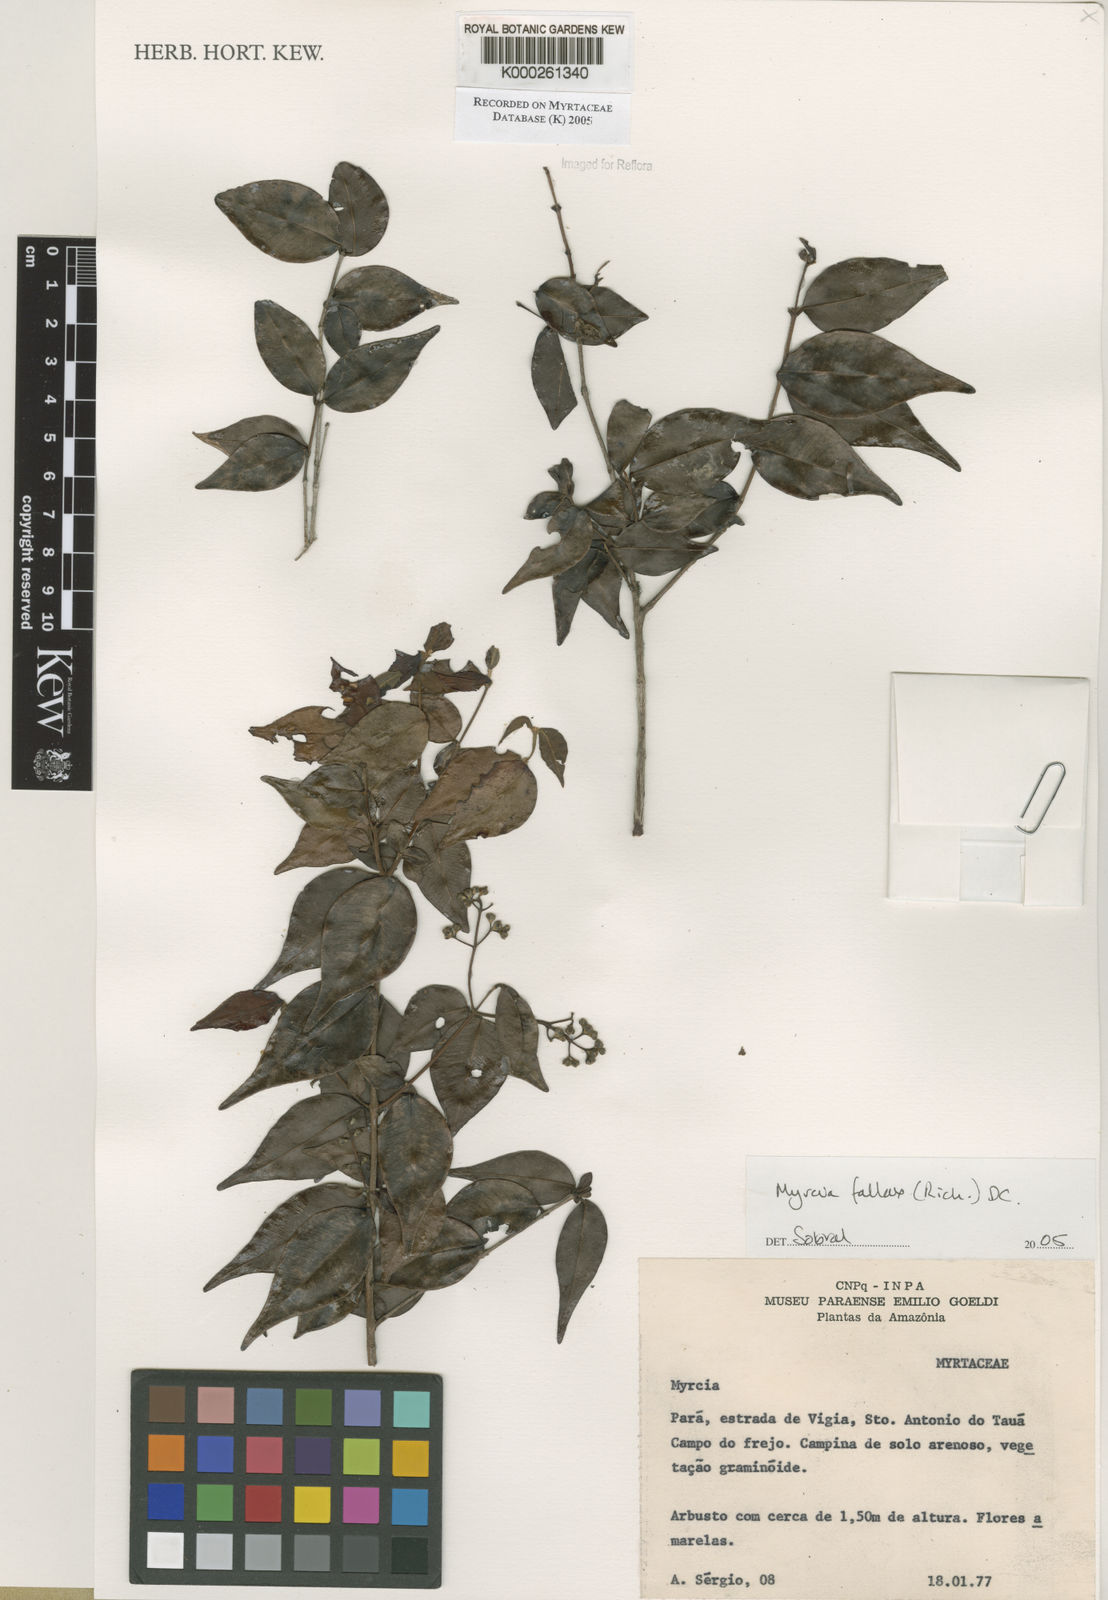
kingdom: Plantae
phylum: Tracheophyta
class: Magnoliopsida
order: Myrtales
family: Myrtaceae
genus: Myrcia
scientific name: Myrcia splendens
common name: Surinam cherry
